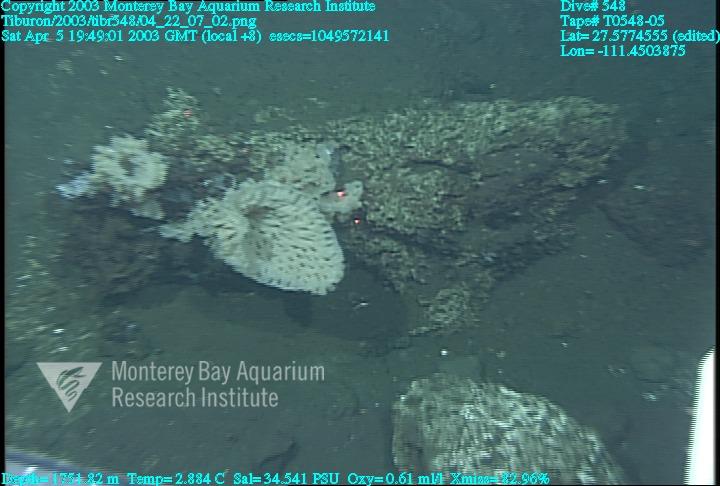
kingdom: Animalia
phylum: Porifera
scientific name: Porifera
